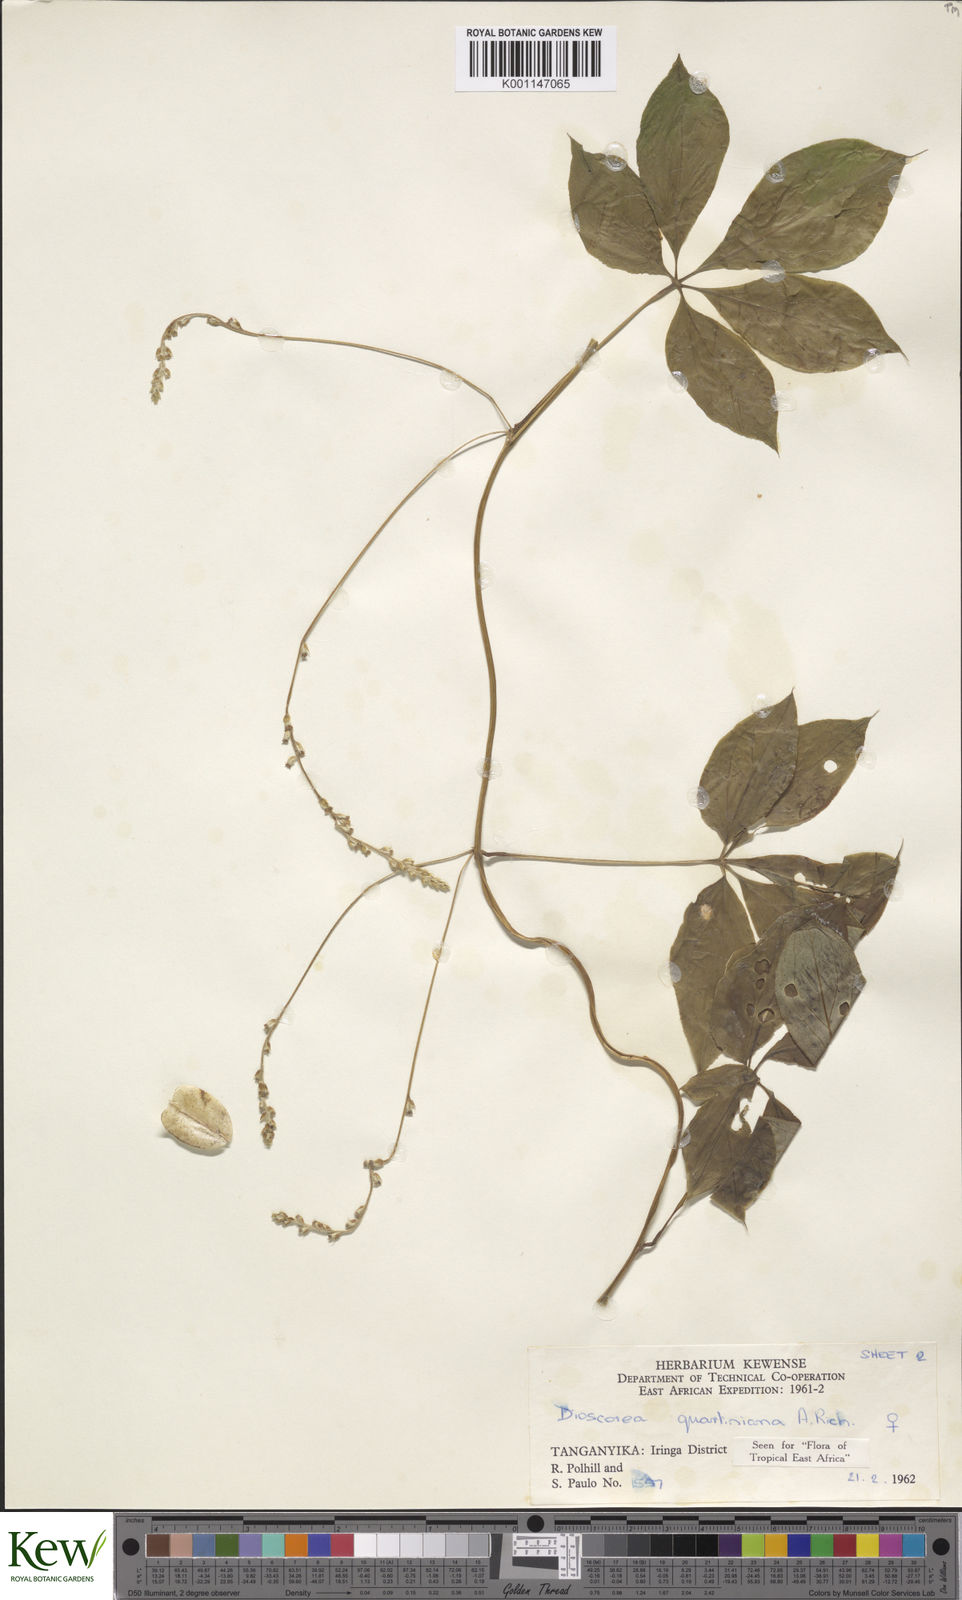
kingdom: Plantae
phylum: Tracheophyta
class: Liliopsida
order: Dioscoreales
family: Dioscoreaceae
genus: Dioscorea
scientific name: Dioscorea quartiniana
